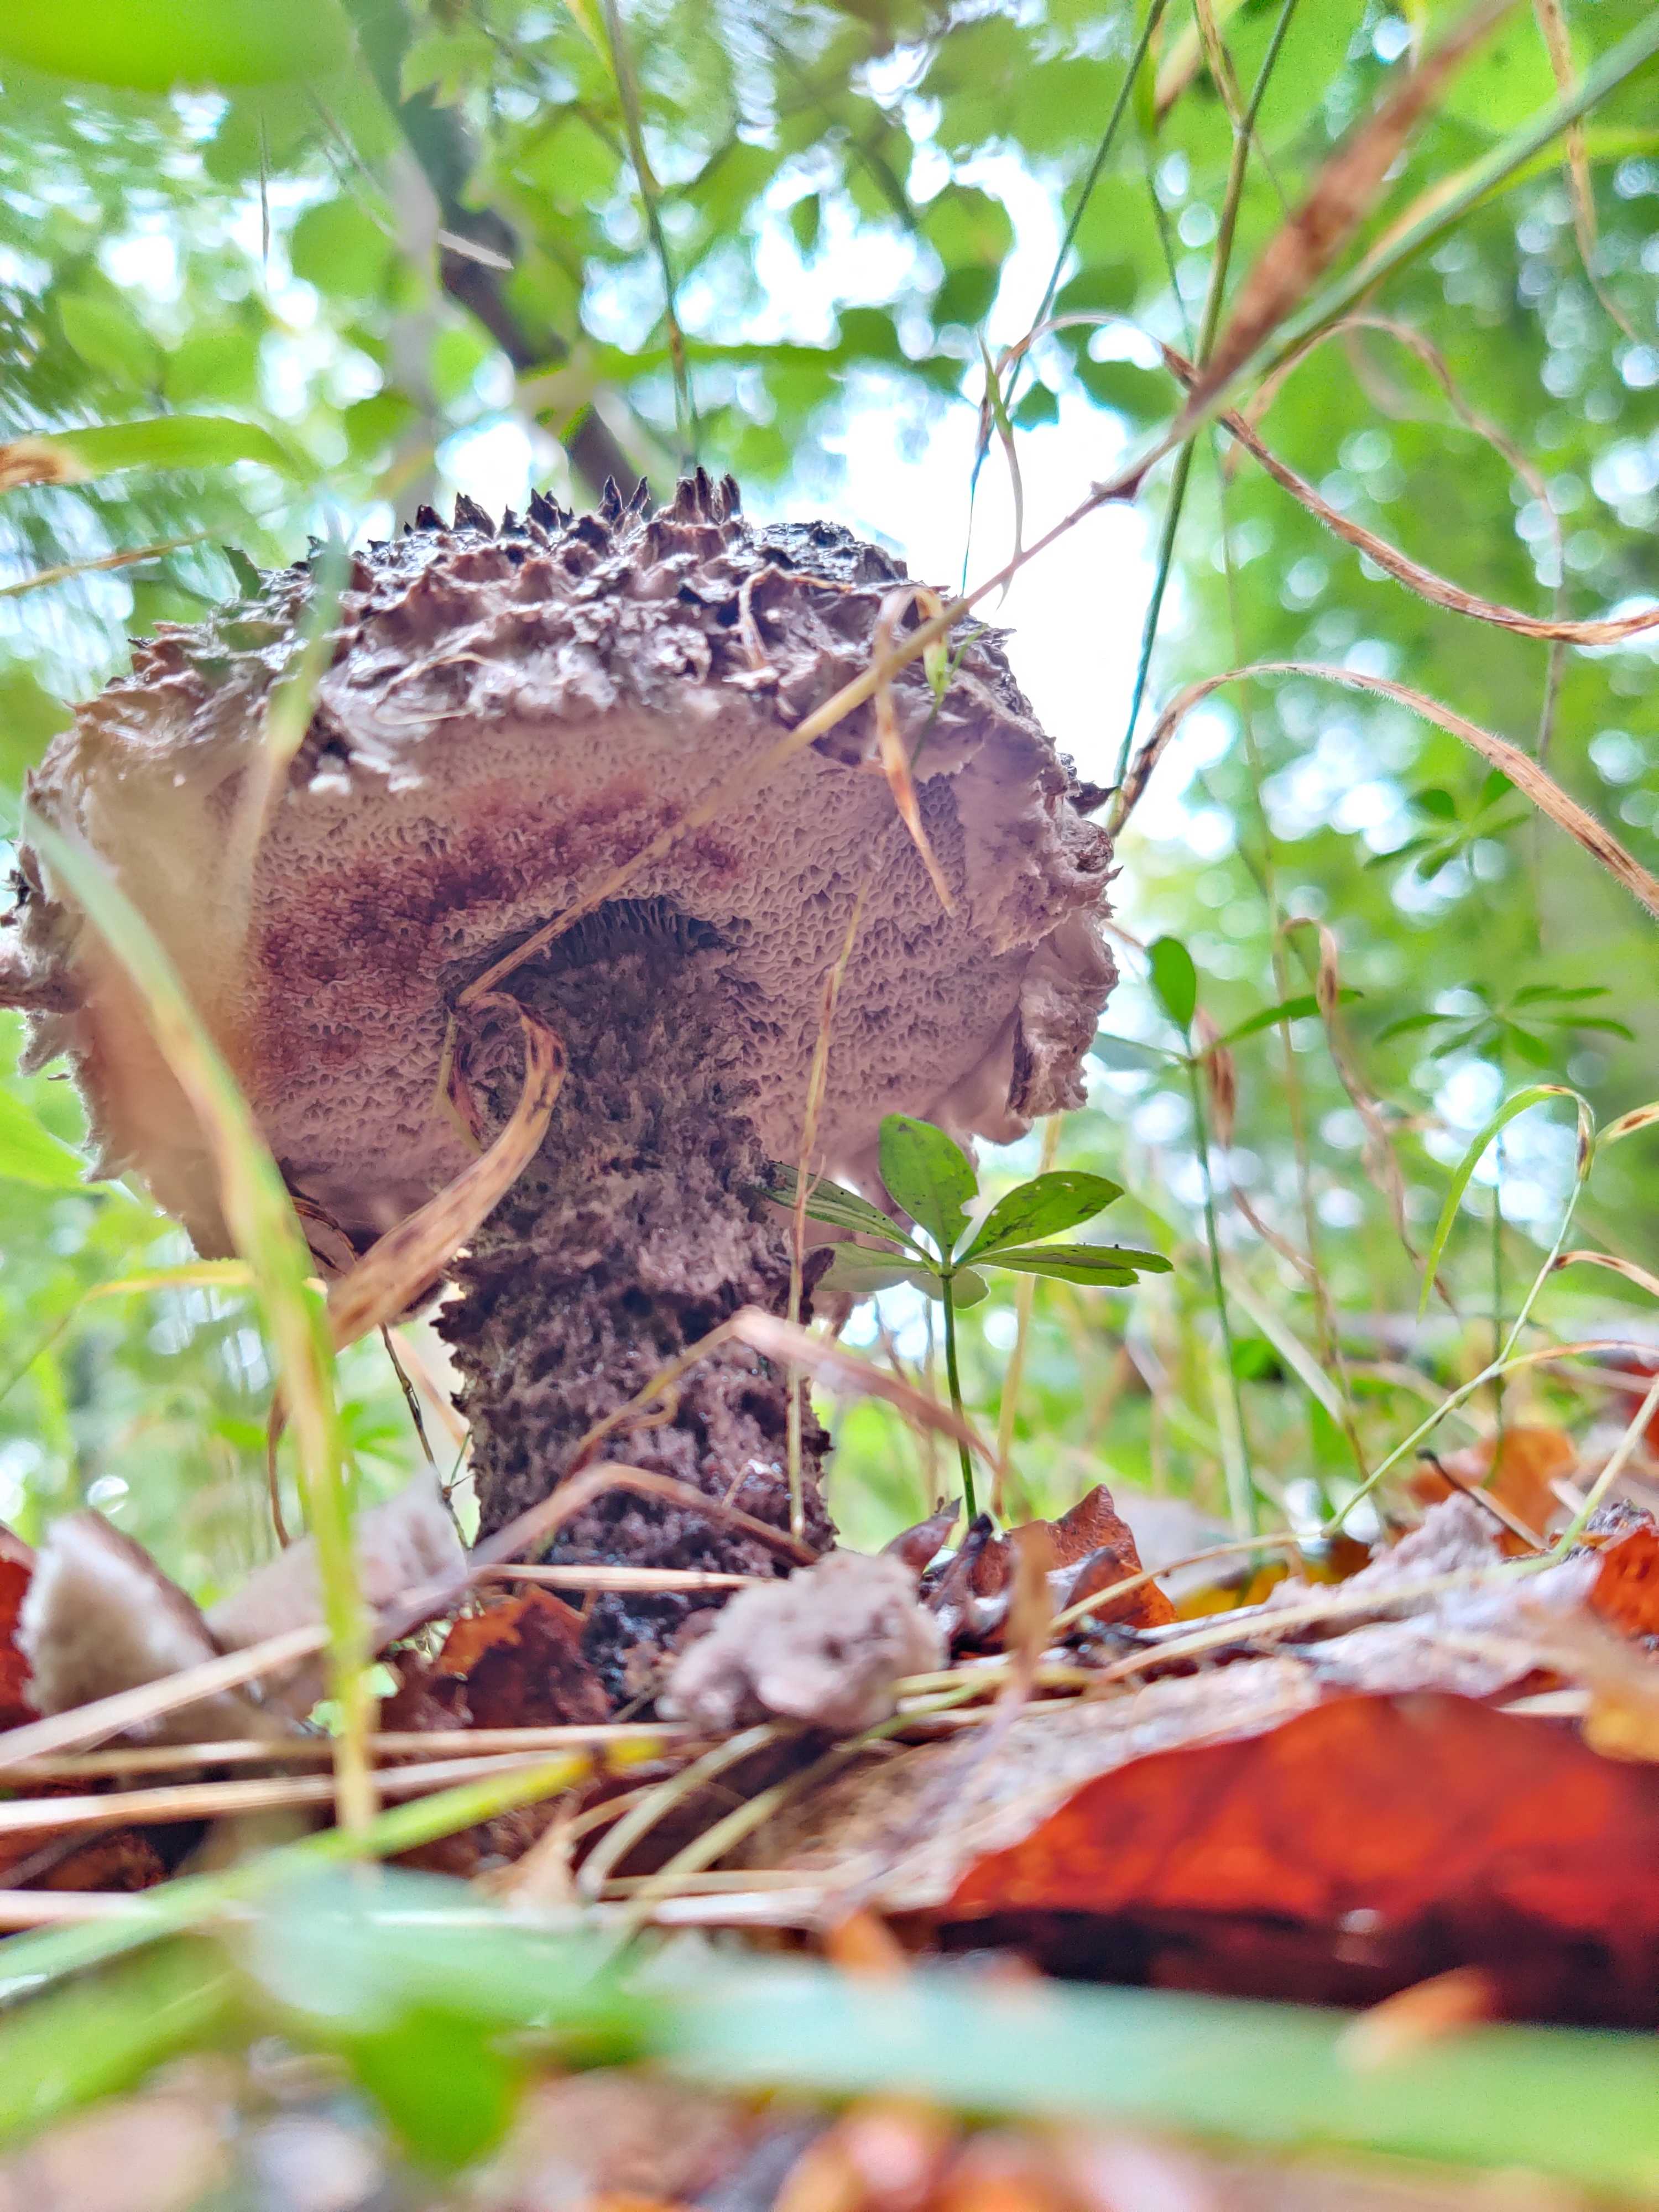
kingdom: Fungi
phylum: Basidiomycota
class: Agaricomycetes
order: Boletales
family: Boletaceae
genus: Strobilomyces
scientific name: Strobilomyces strobilaceus
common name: koglerørhat
